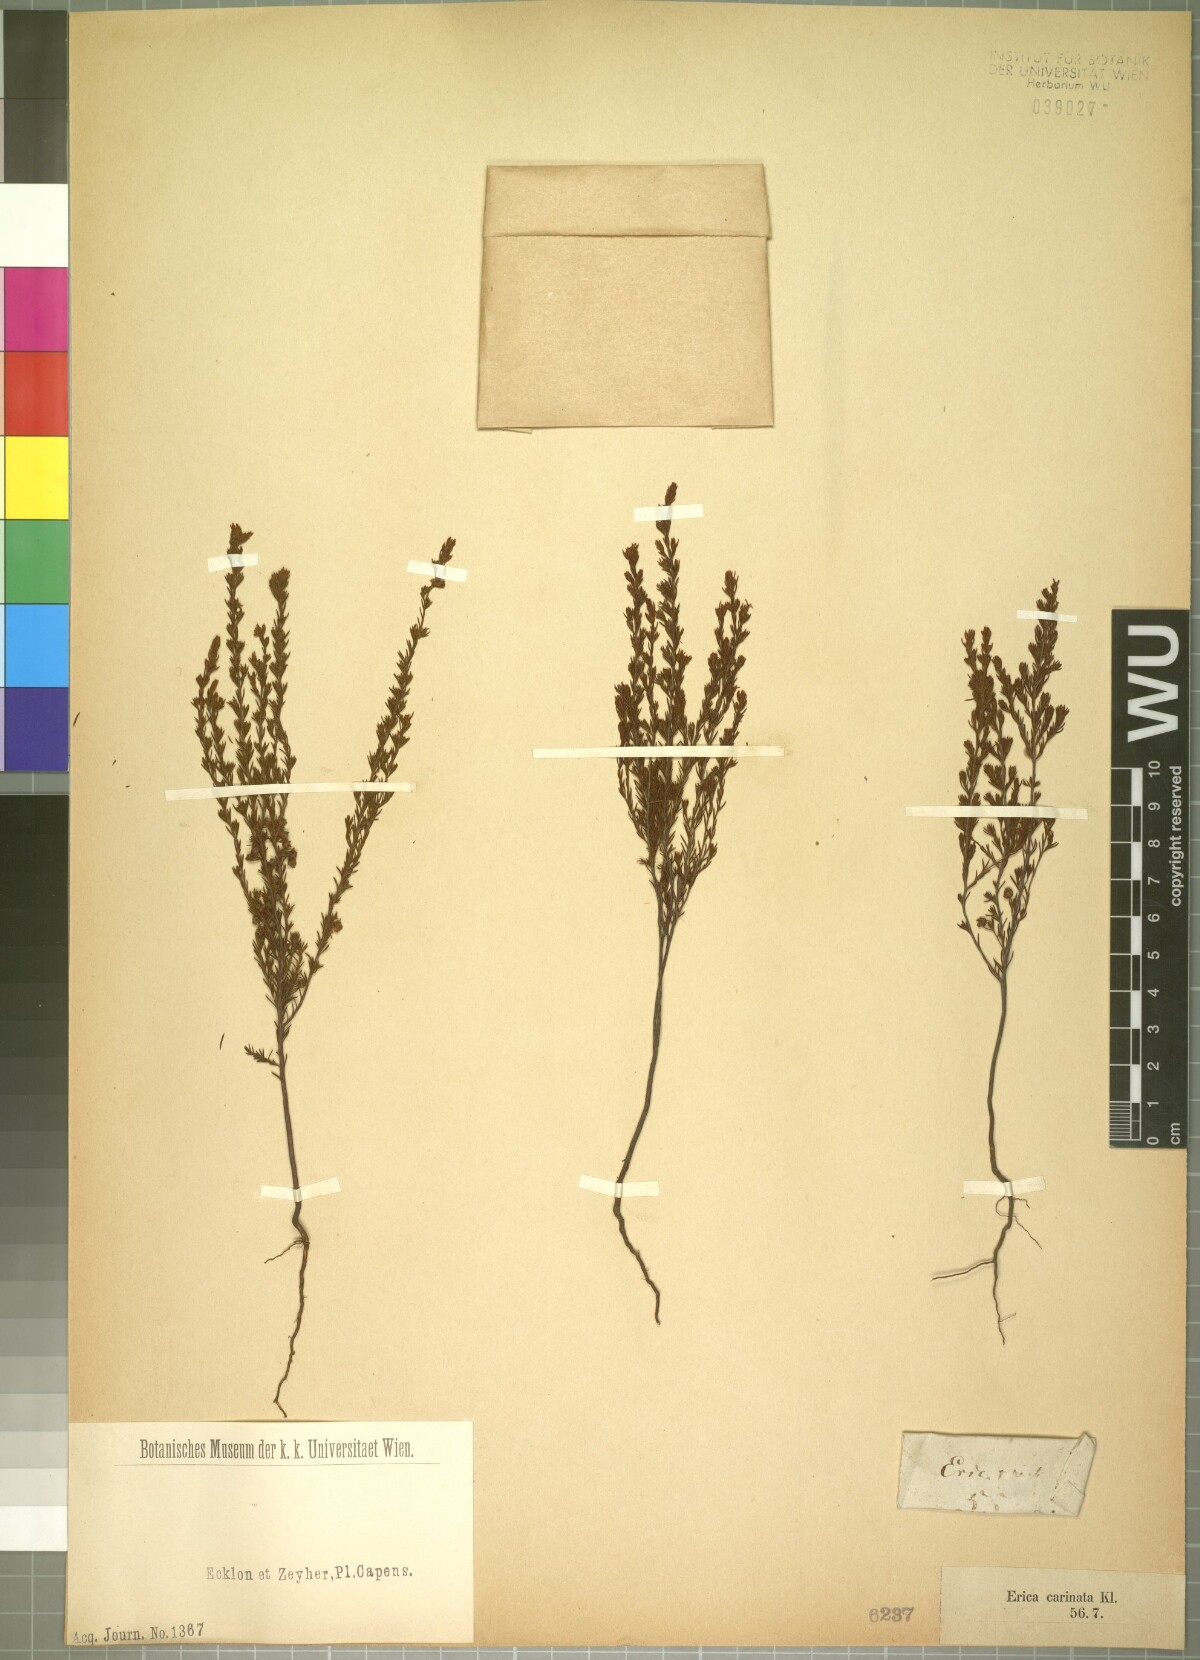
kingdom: Plantae
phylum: Tracheophyta
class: Magnoliopsida
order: Ericales
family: Ericaceae
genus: Erica
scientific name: Erica atricha
